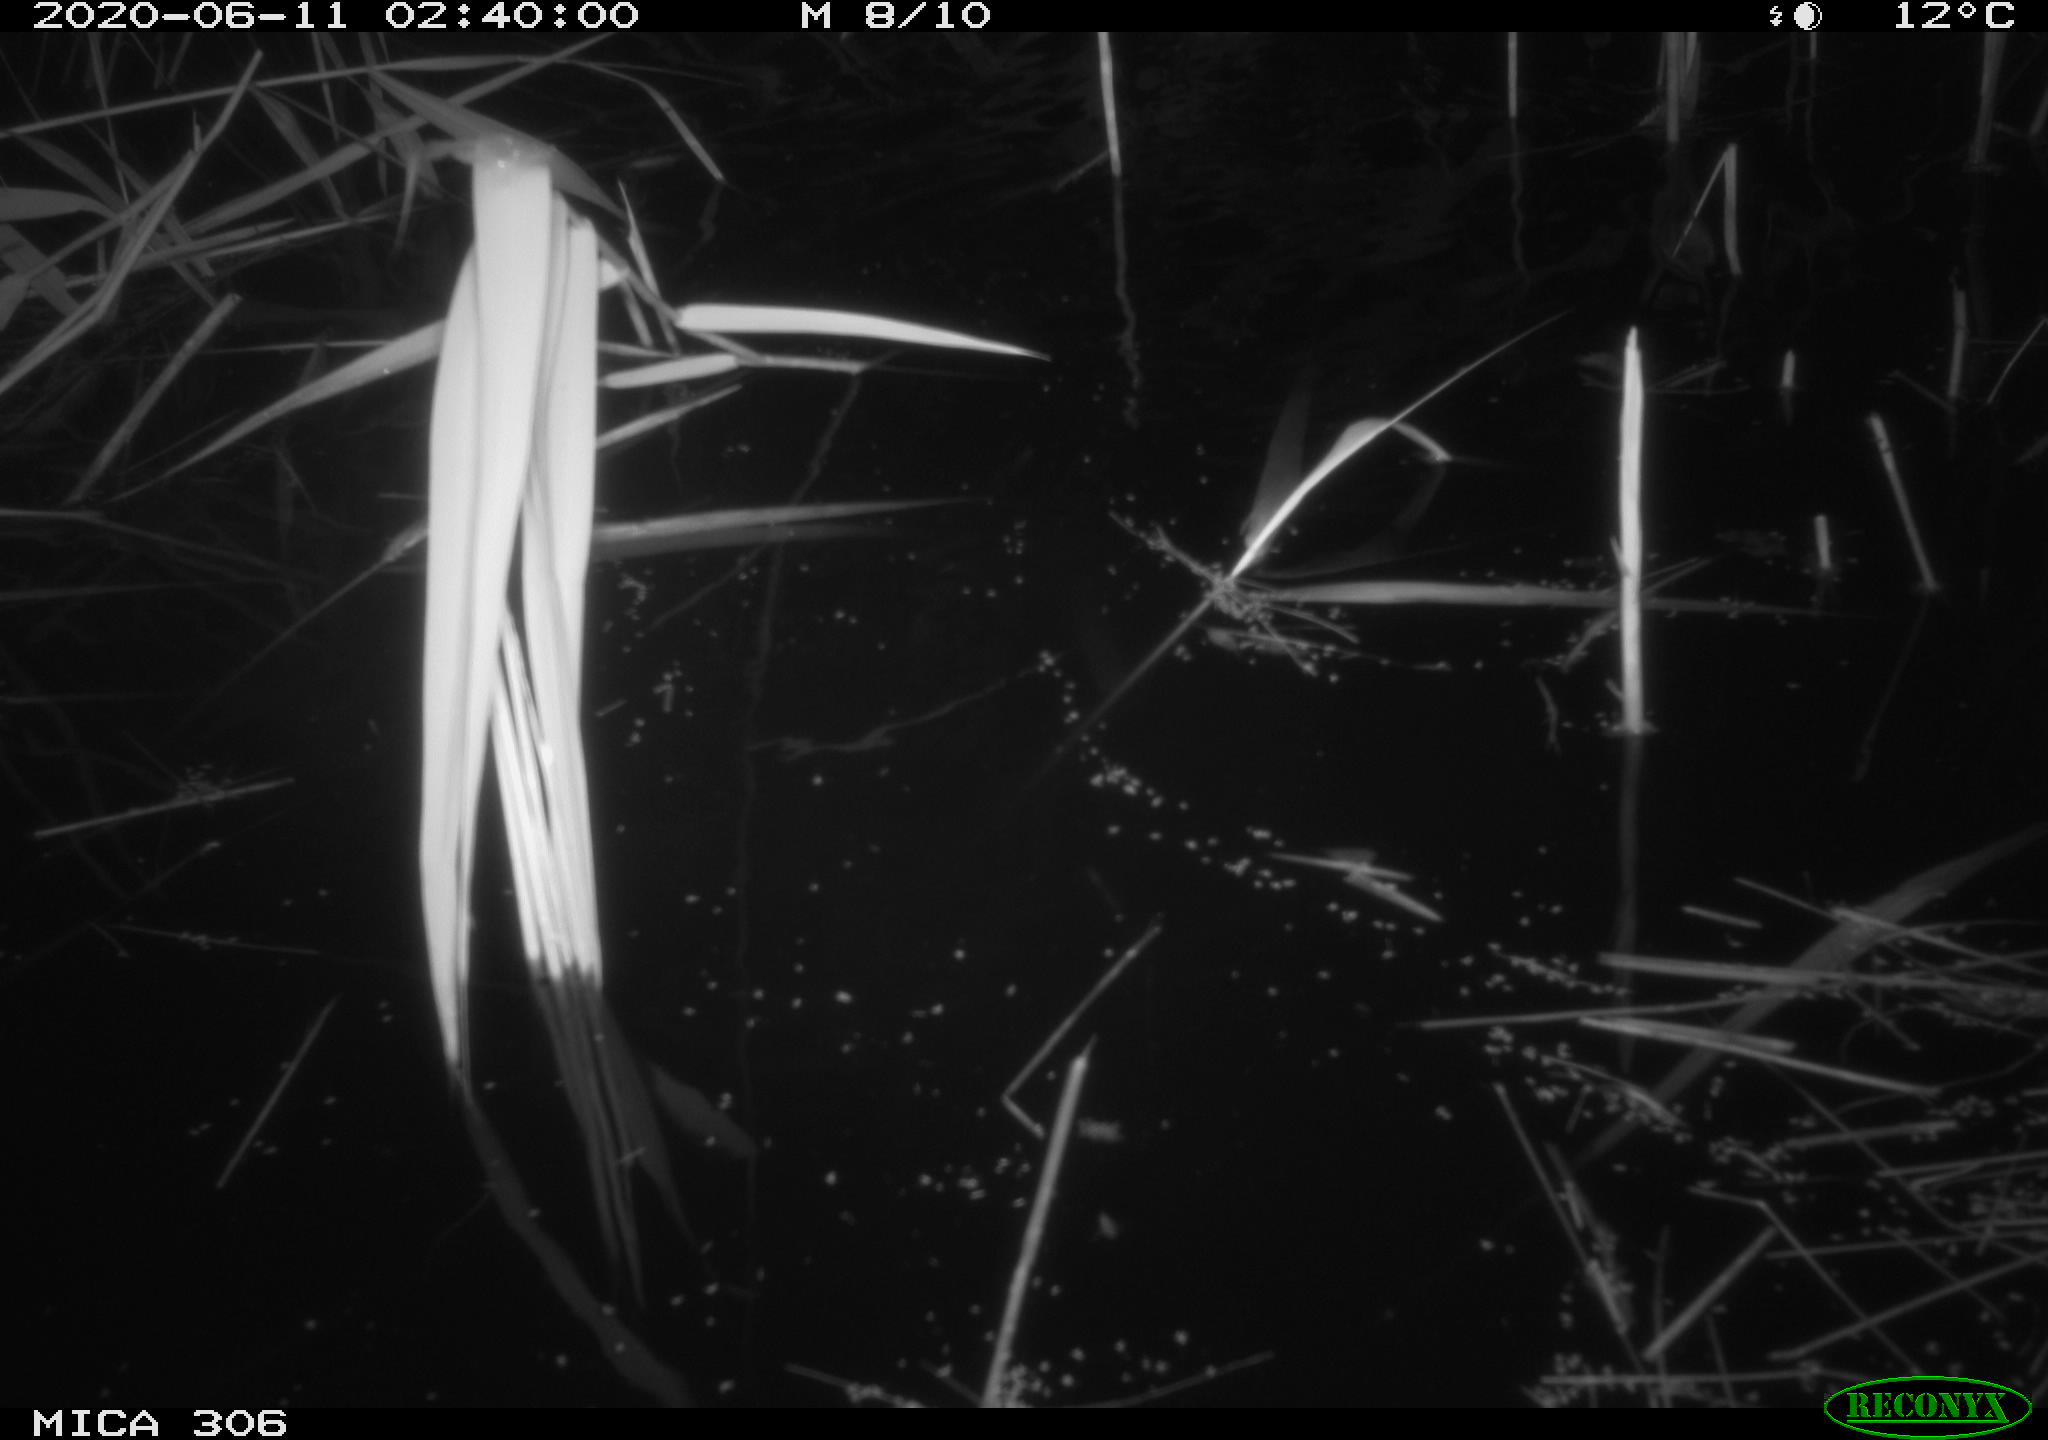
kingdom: Animalia
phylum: Chordata
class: Mammalia
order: Rodentia
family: Muridae
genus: Rattus
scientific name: Rattus norvegicus
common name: Brown rat
